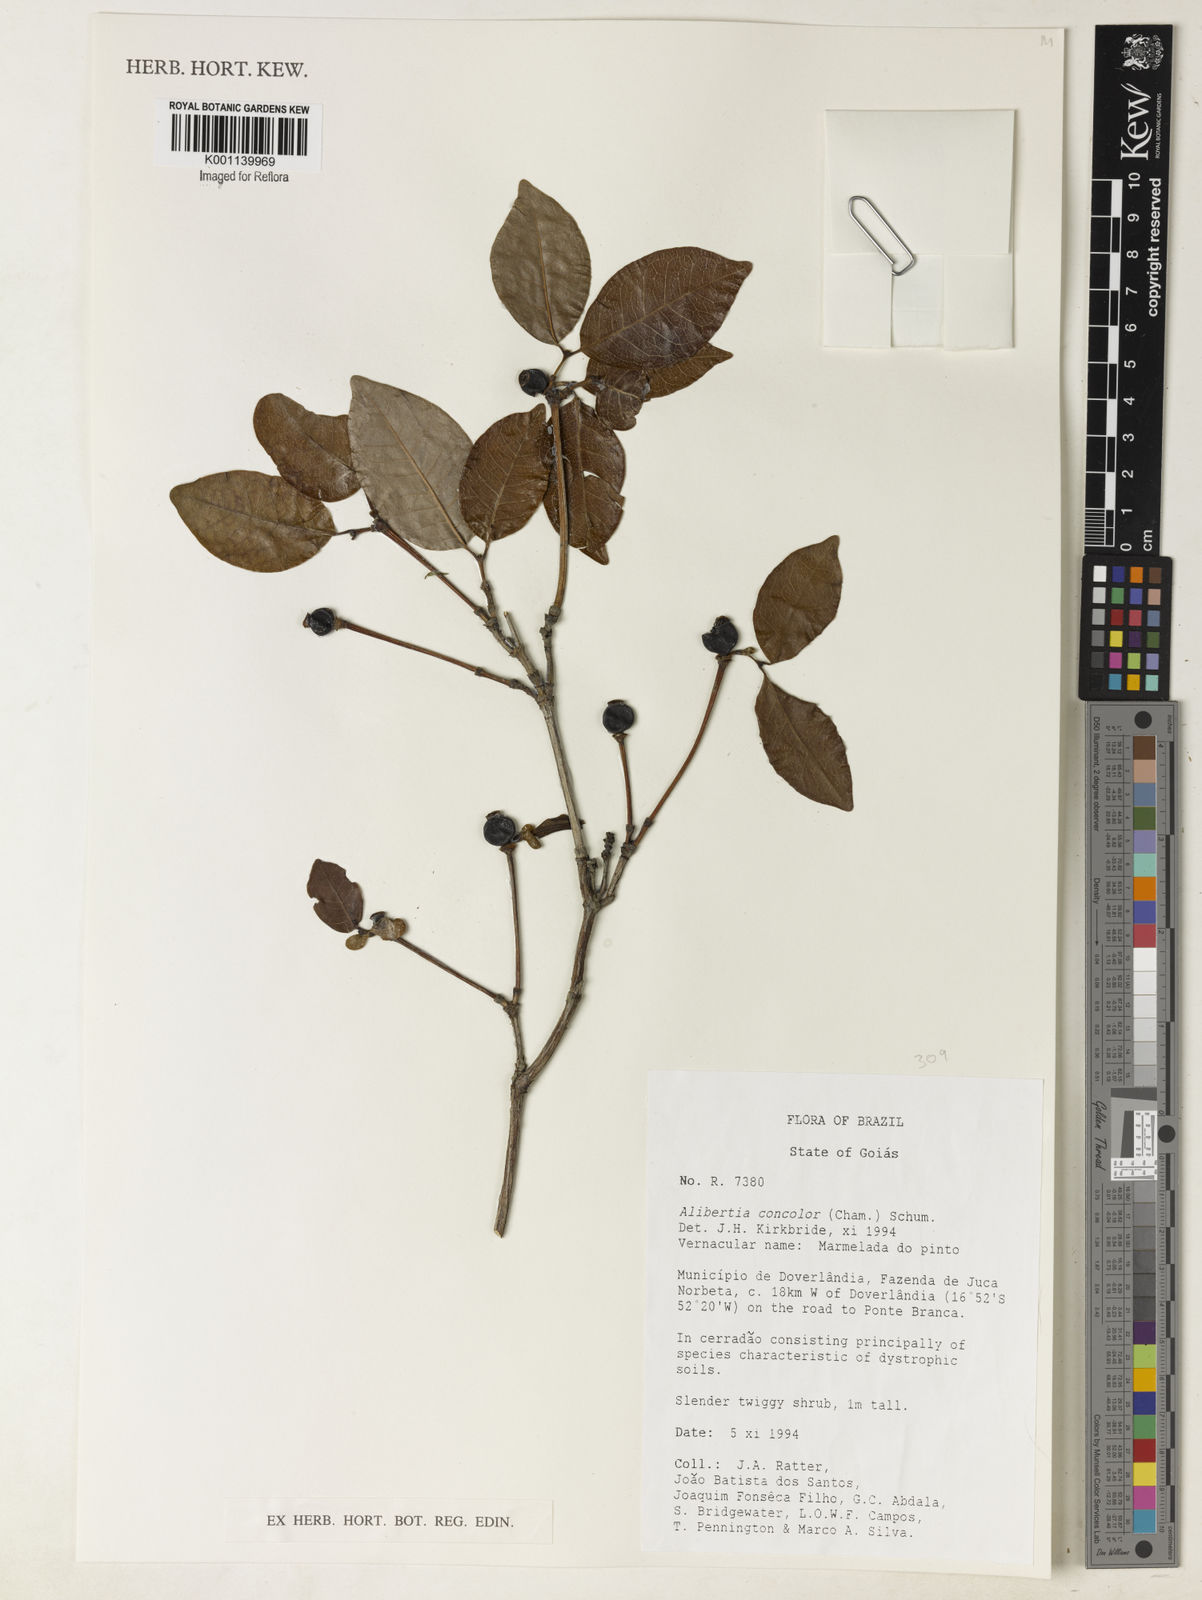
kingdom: Plantae
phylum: Tracheophyta
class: Magnoliopsida
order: Gentianales
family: Rubiaceae
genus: Cordiera
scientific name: Cordiera concolor
